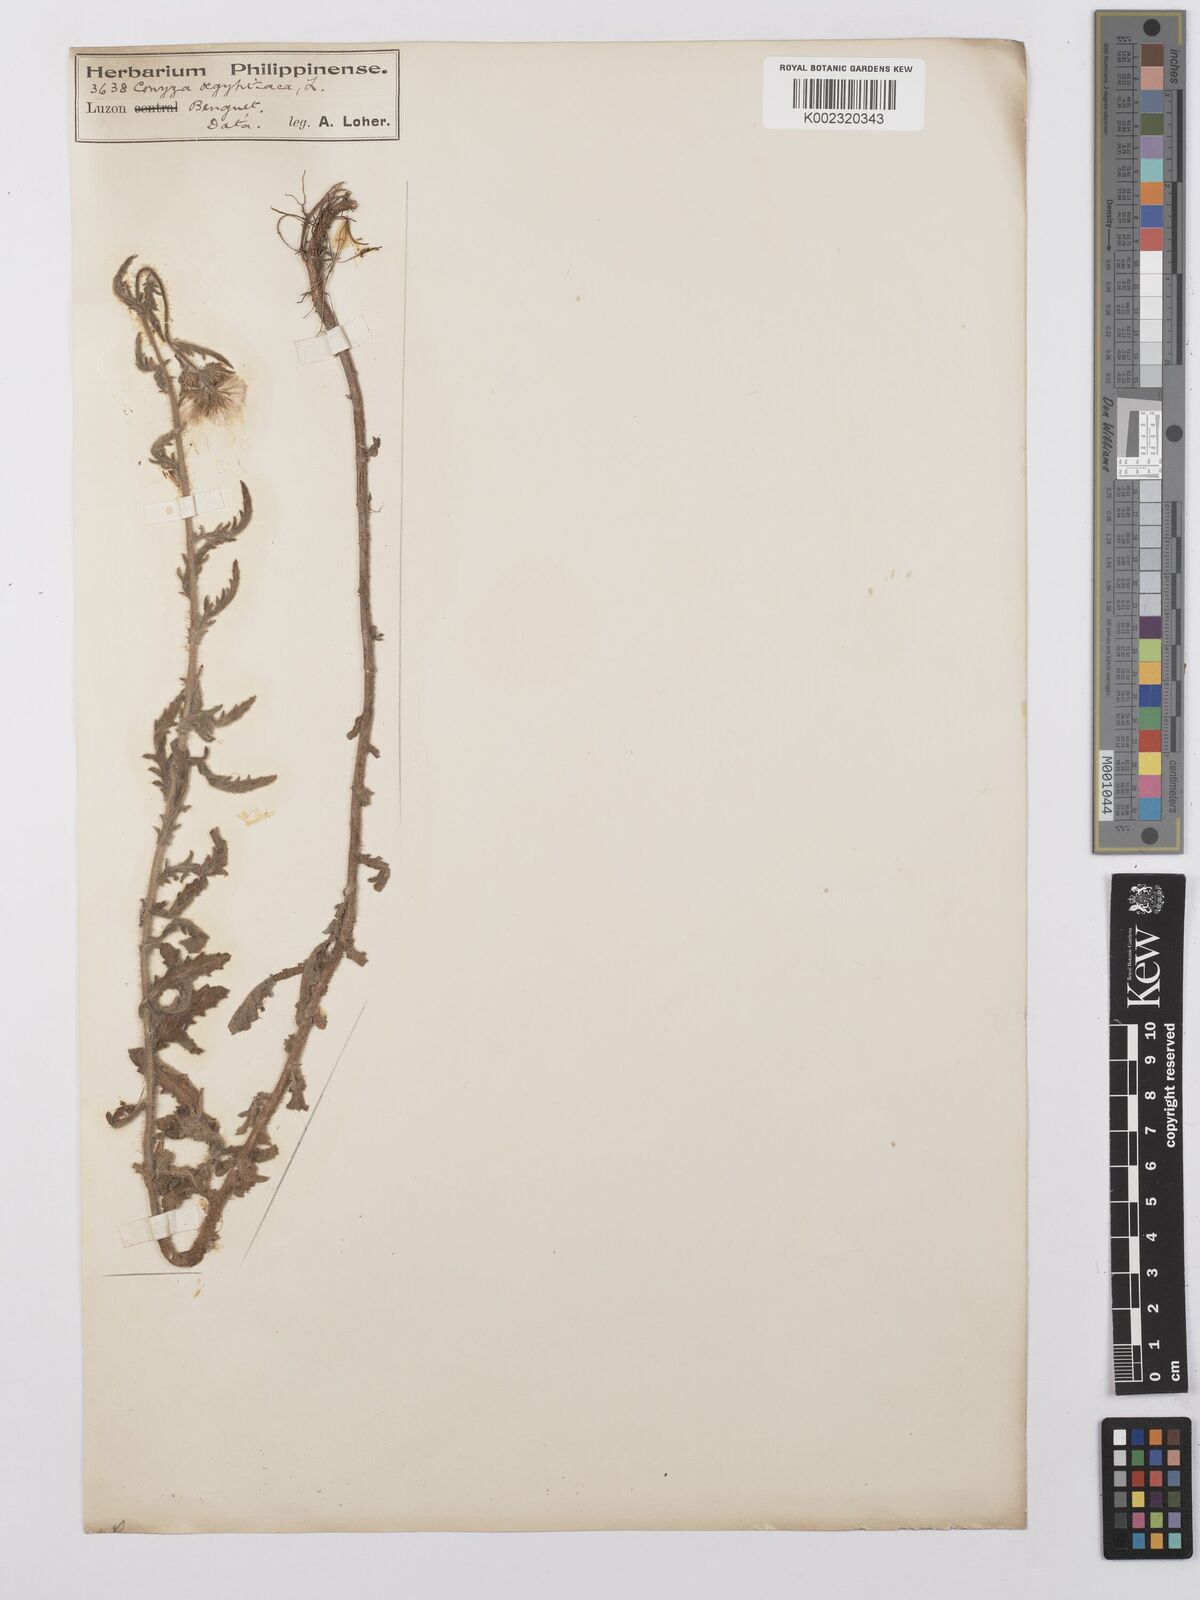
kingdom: Plantae
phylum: Tracheophyta
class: Magnoliopsida
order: Asterales
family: Asteraceae
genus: Nidorella
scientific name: Nidorella aegyptiaca
